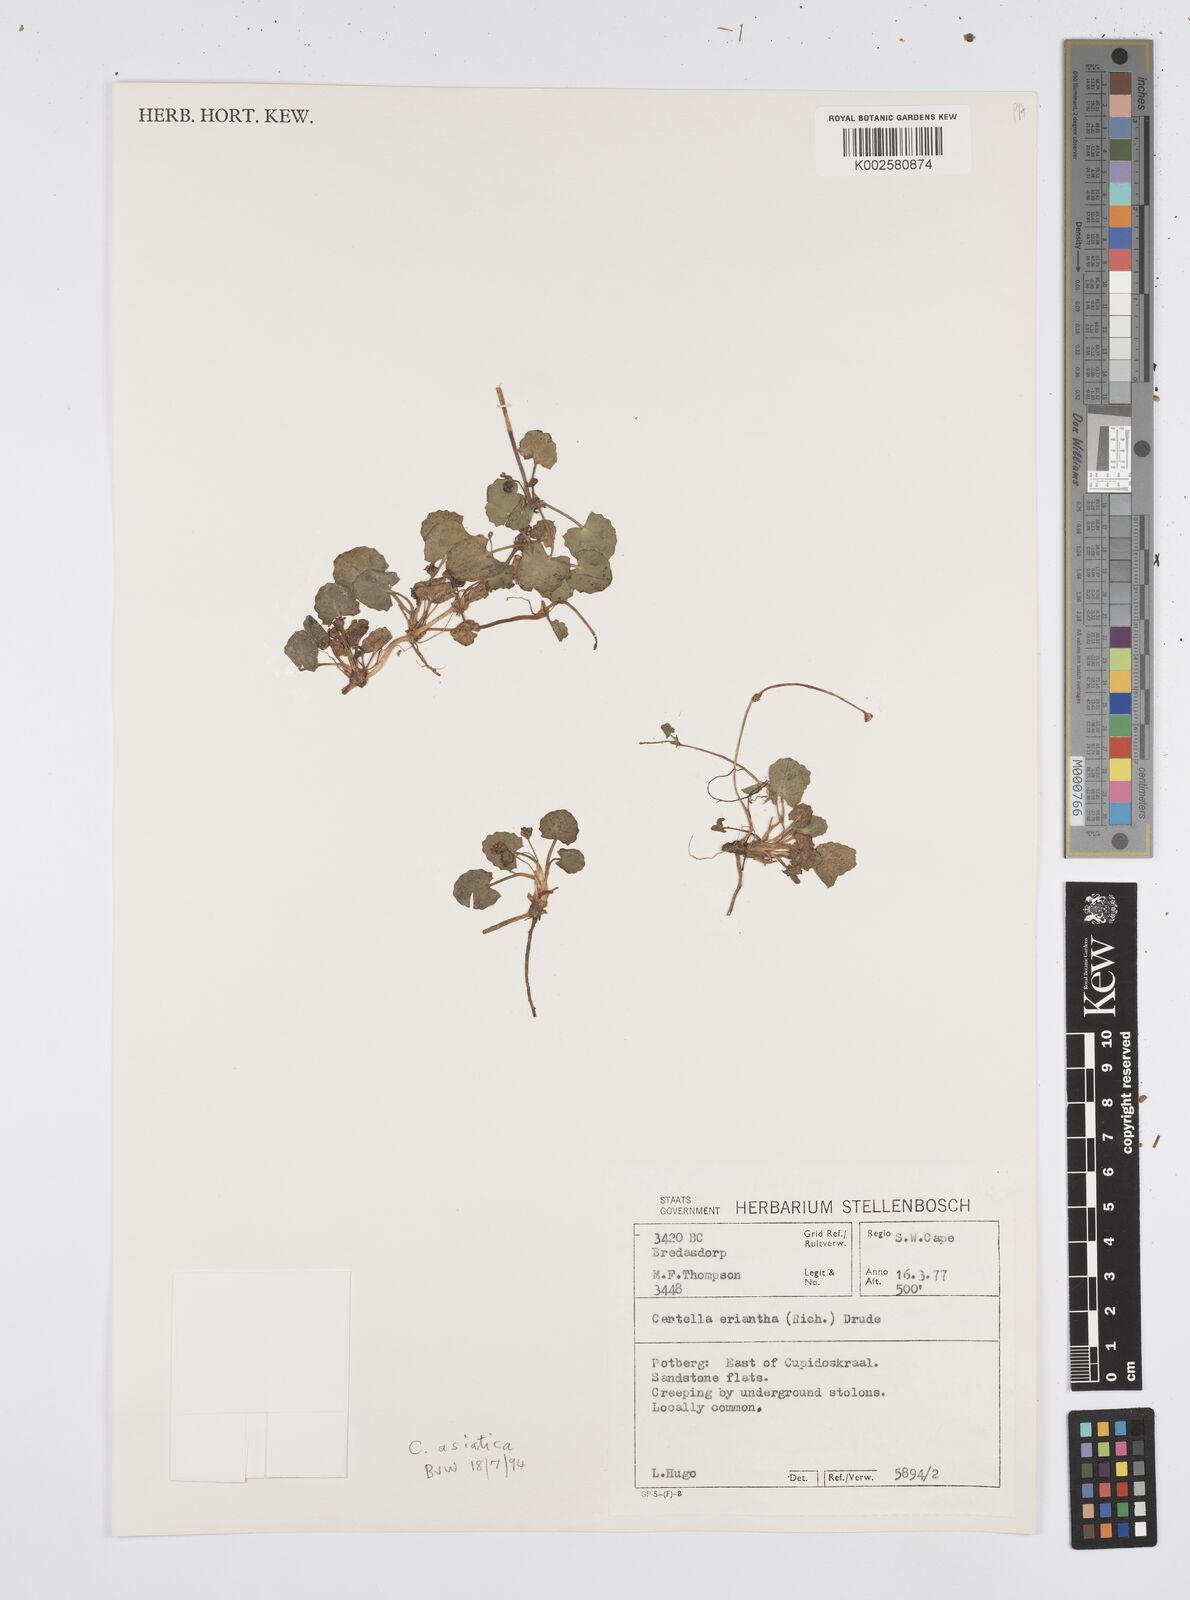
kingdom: Plantae
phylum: Tracheophyta
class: Magnoliopsida
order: Apiales
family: Apiaceae
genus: Centella
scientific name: Centella eriantha
